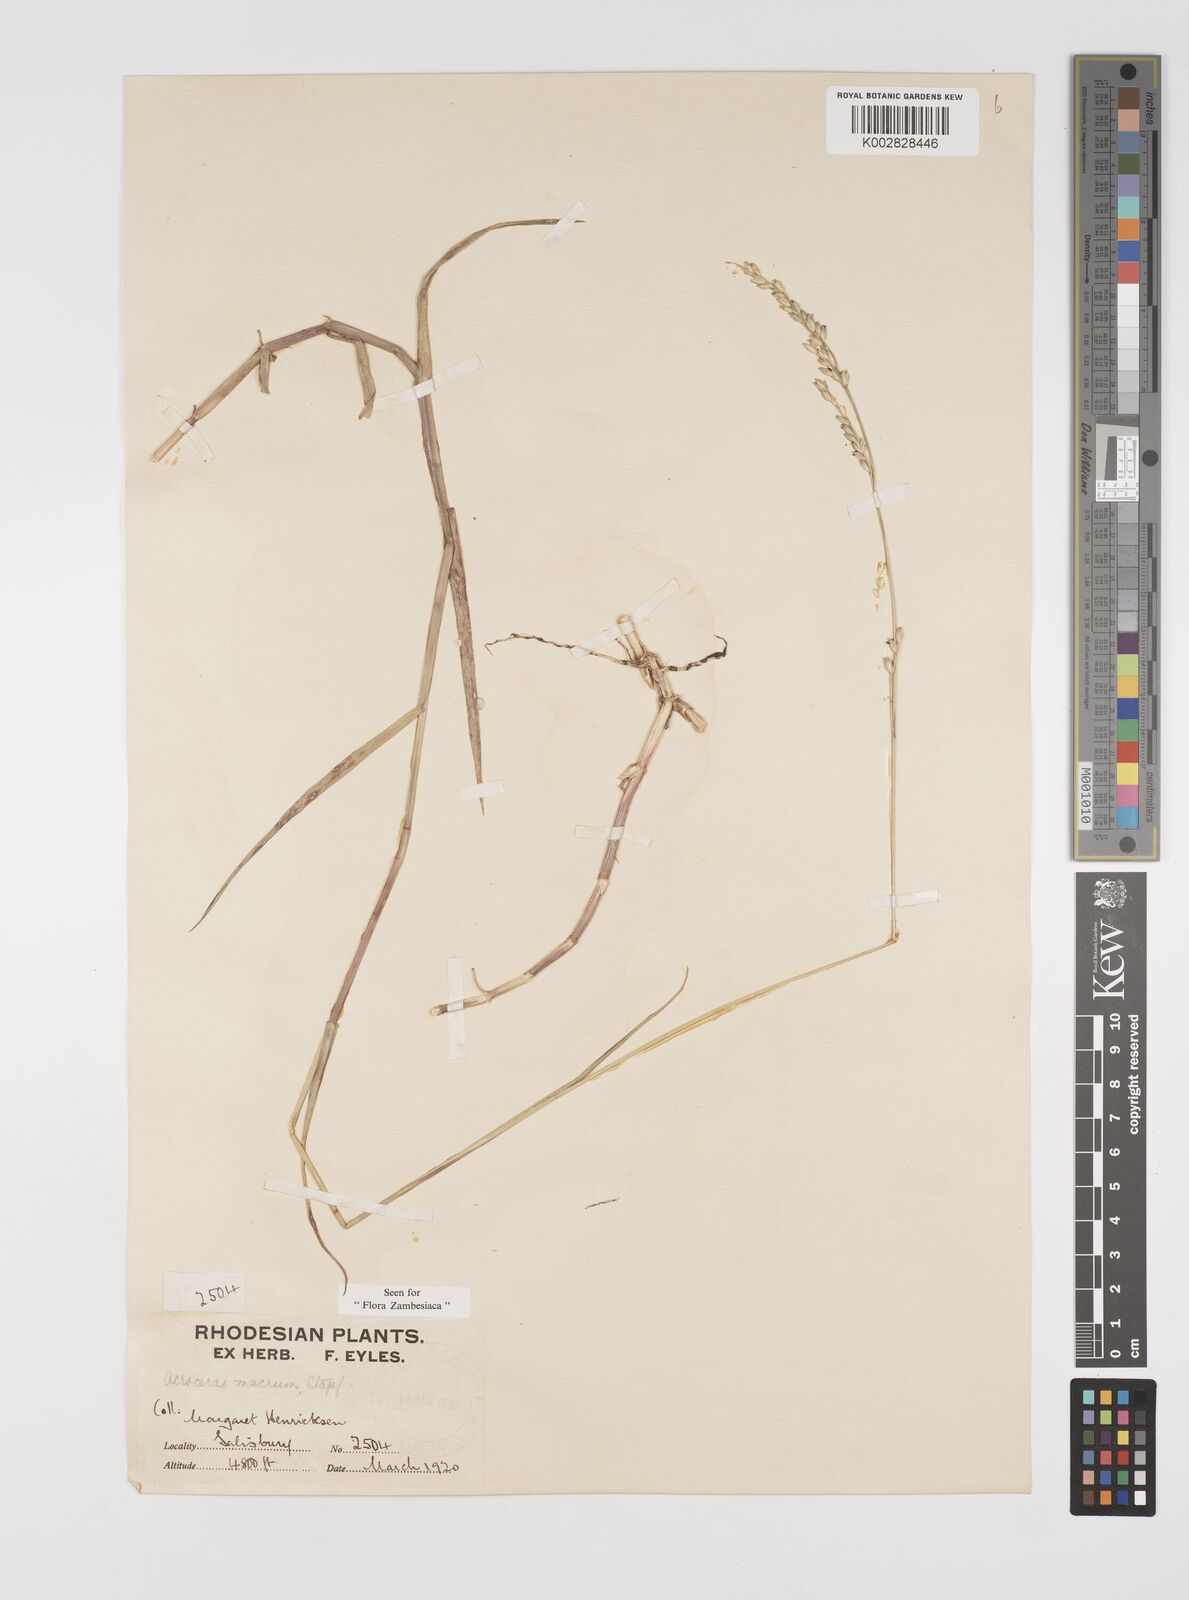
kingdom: Plantae
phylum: Tracheophyta
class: Liliopsida
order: Poales
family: Poaceae
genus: Acroceras
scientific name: Acroceras macrum
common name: Nyl grass
